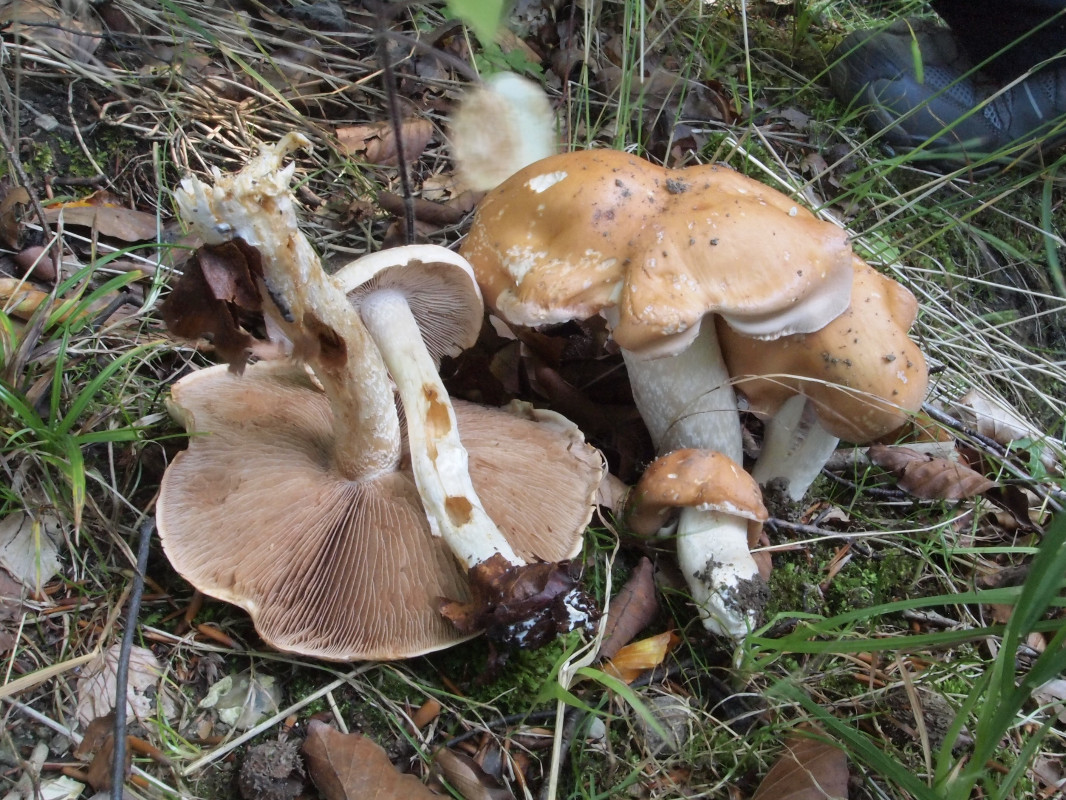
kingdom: Fungi
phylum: Basidiomycota
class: Agaricomycetes
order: Agaricales
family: Hymenogastraceae
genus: Hebeloma
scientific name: Hebeloma
